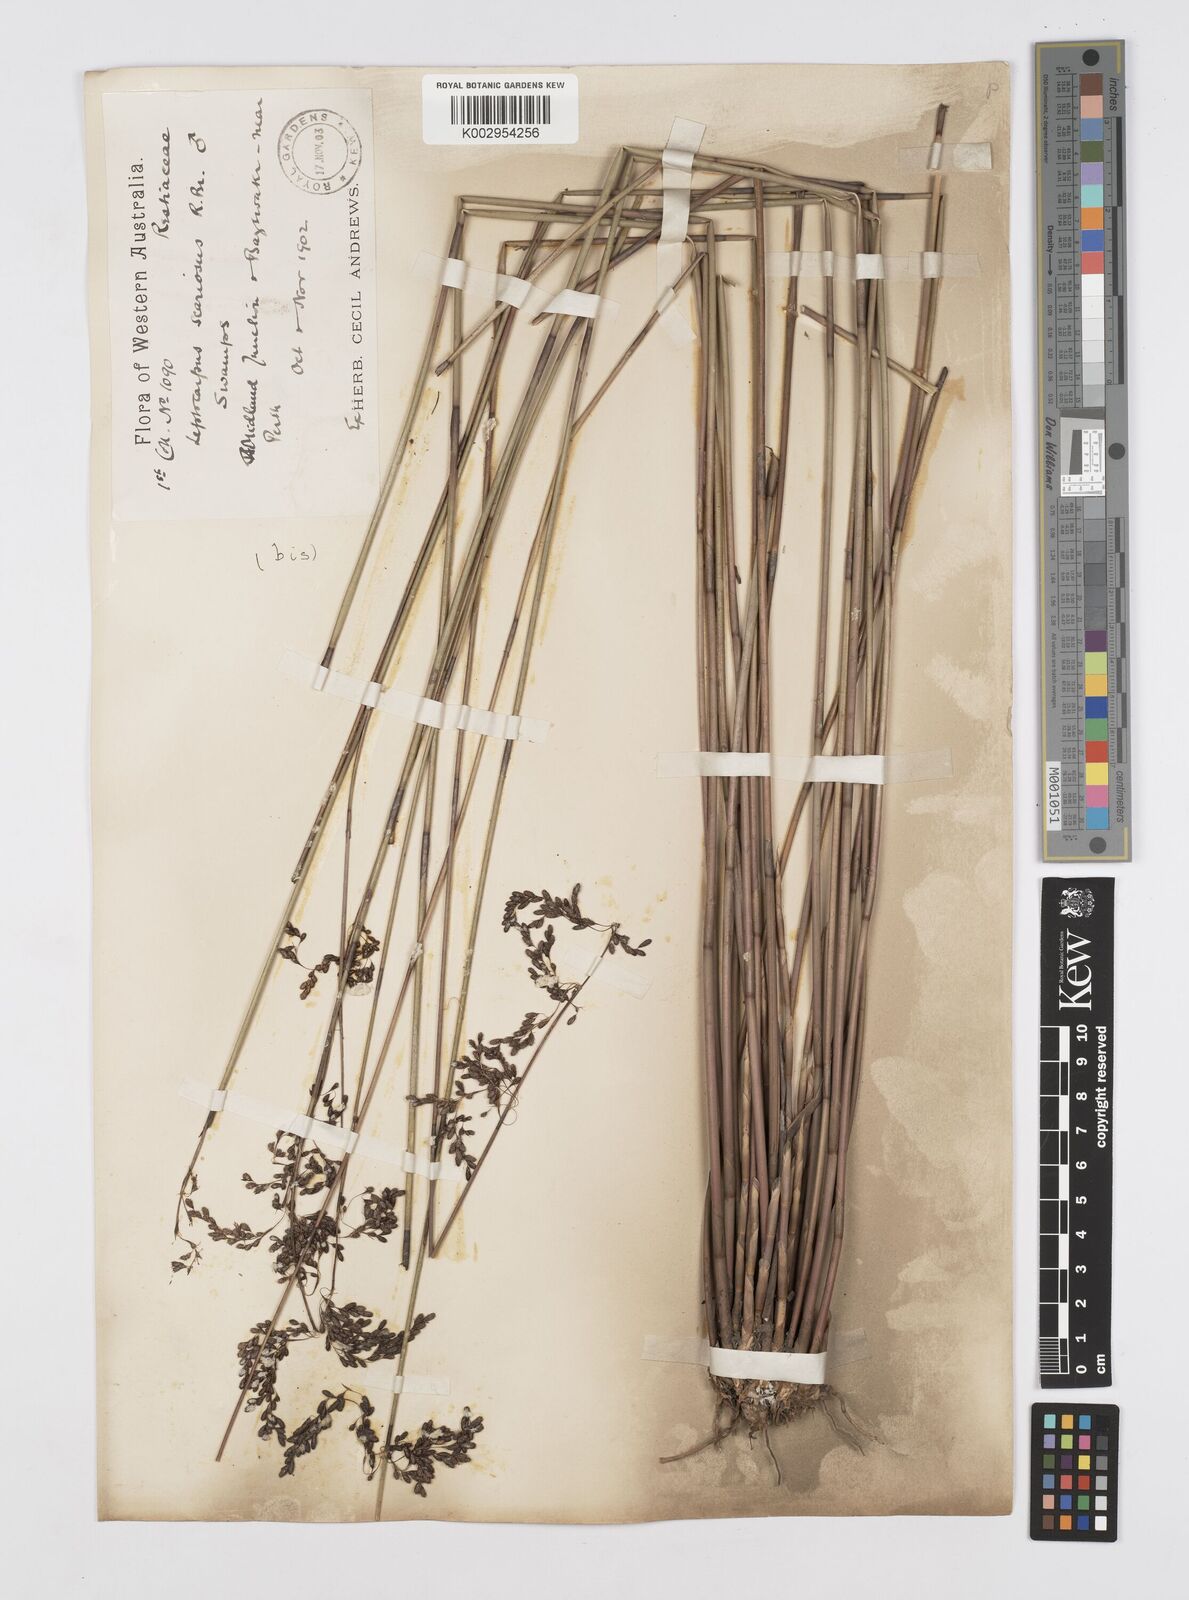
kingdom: Plantae
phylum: Tracheophyta
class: Liliopsida
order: Poales
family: Restionaceae
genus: Leptocarpus
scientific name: Leptocarpus scariosus
